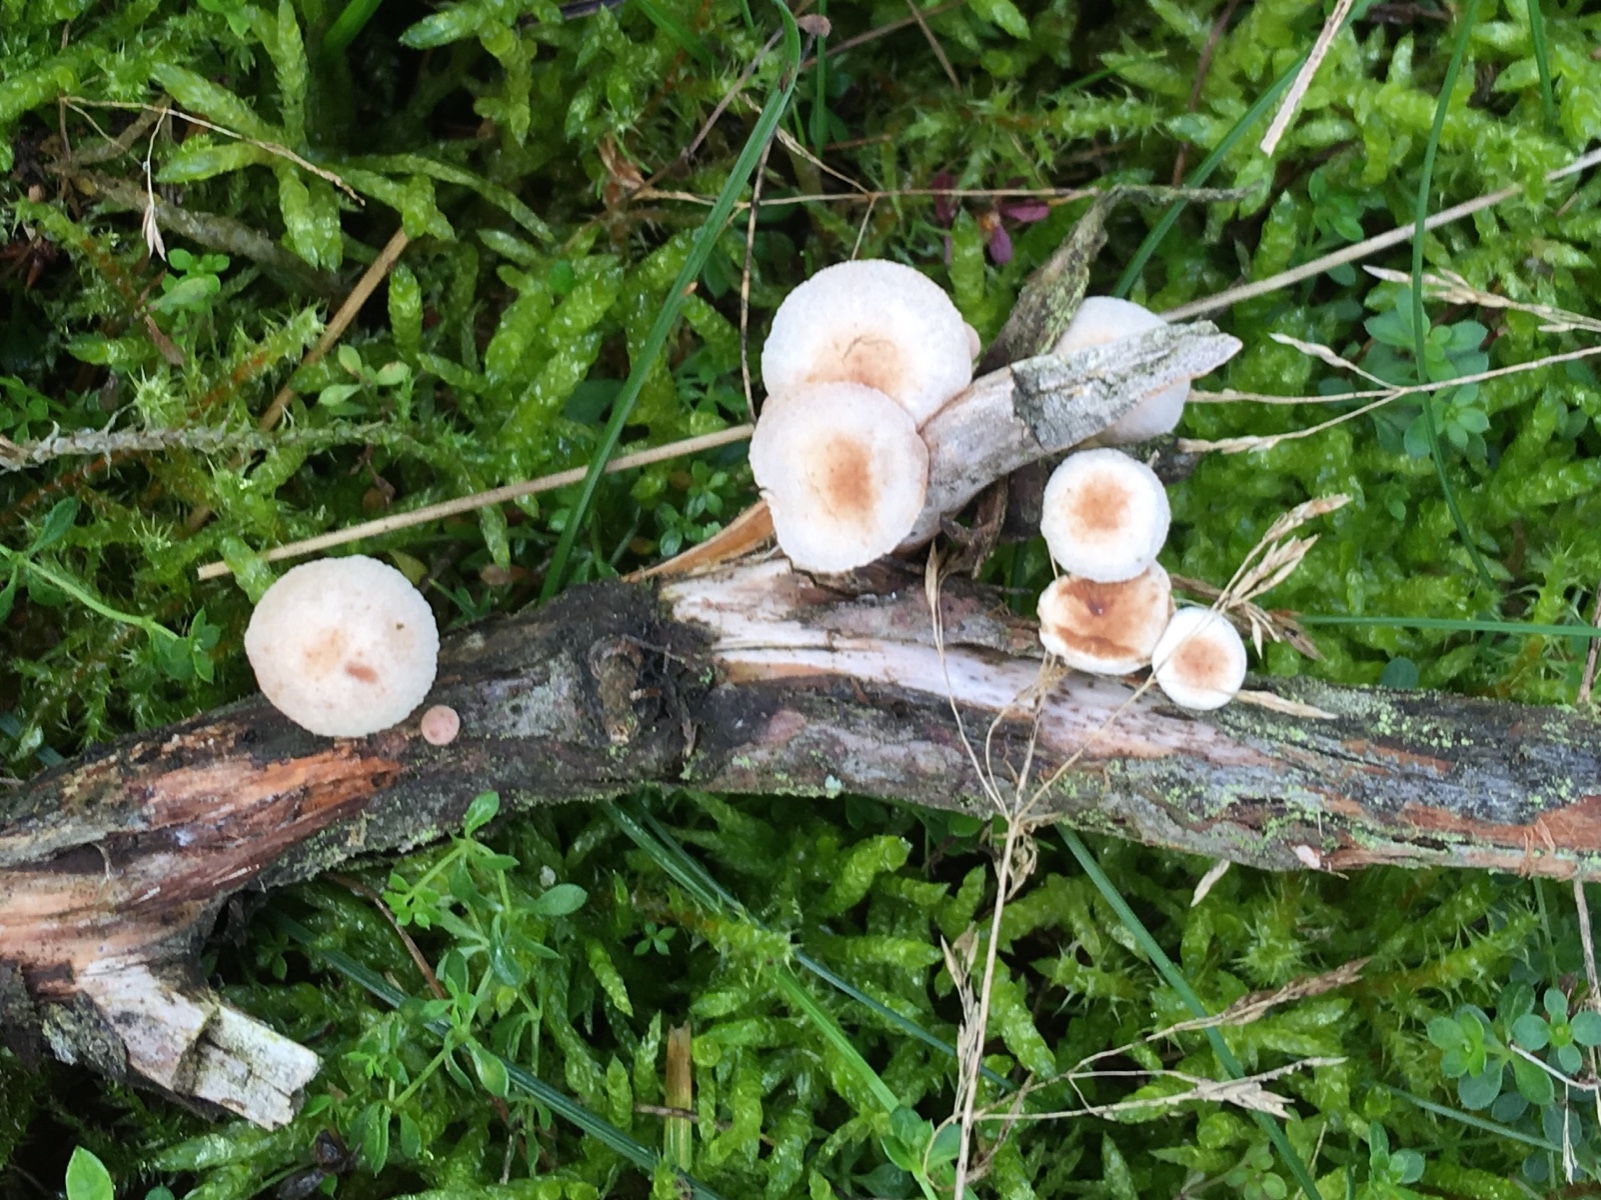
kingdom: Fungi
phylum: Basidiomycota
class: Agaricomycetes
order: Agaricales
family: Omphalotaceae
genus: Collybiopsis
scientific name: Collybiopsis ramealis
